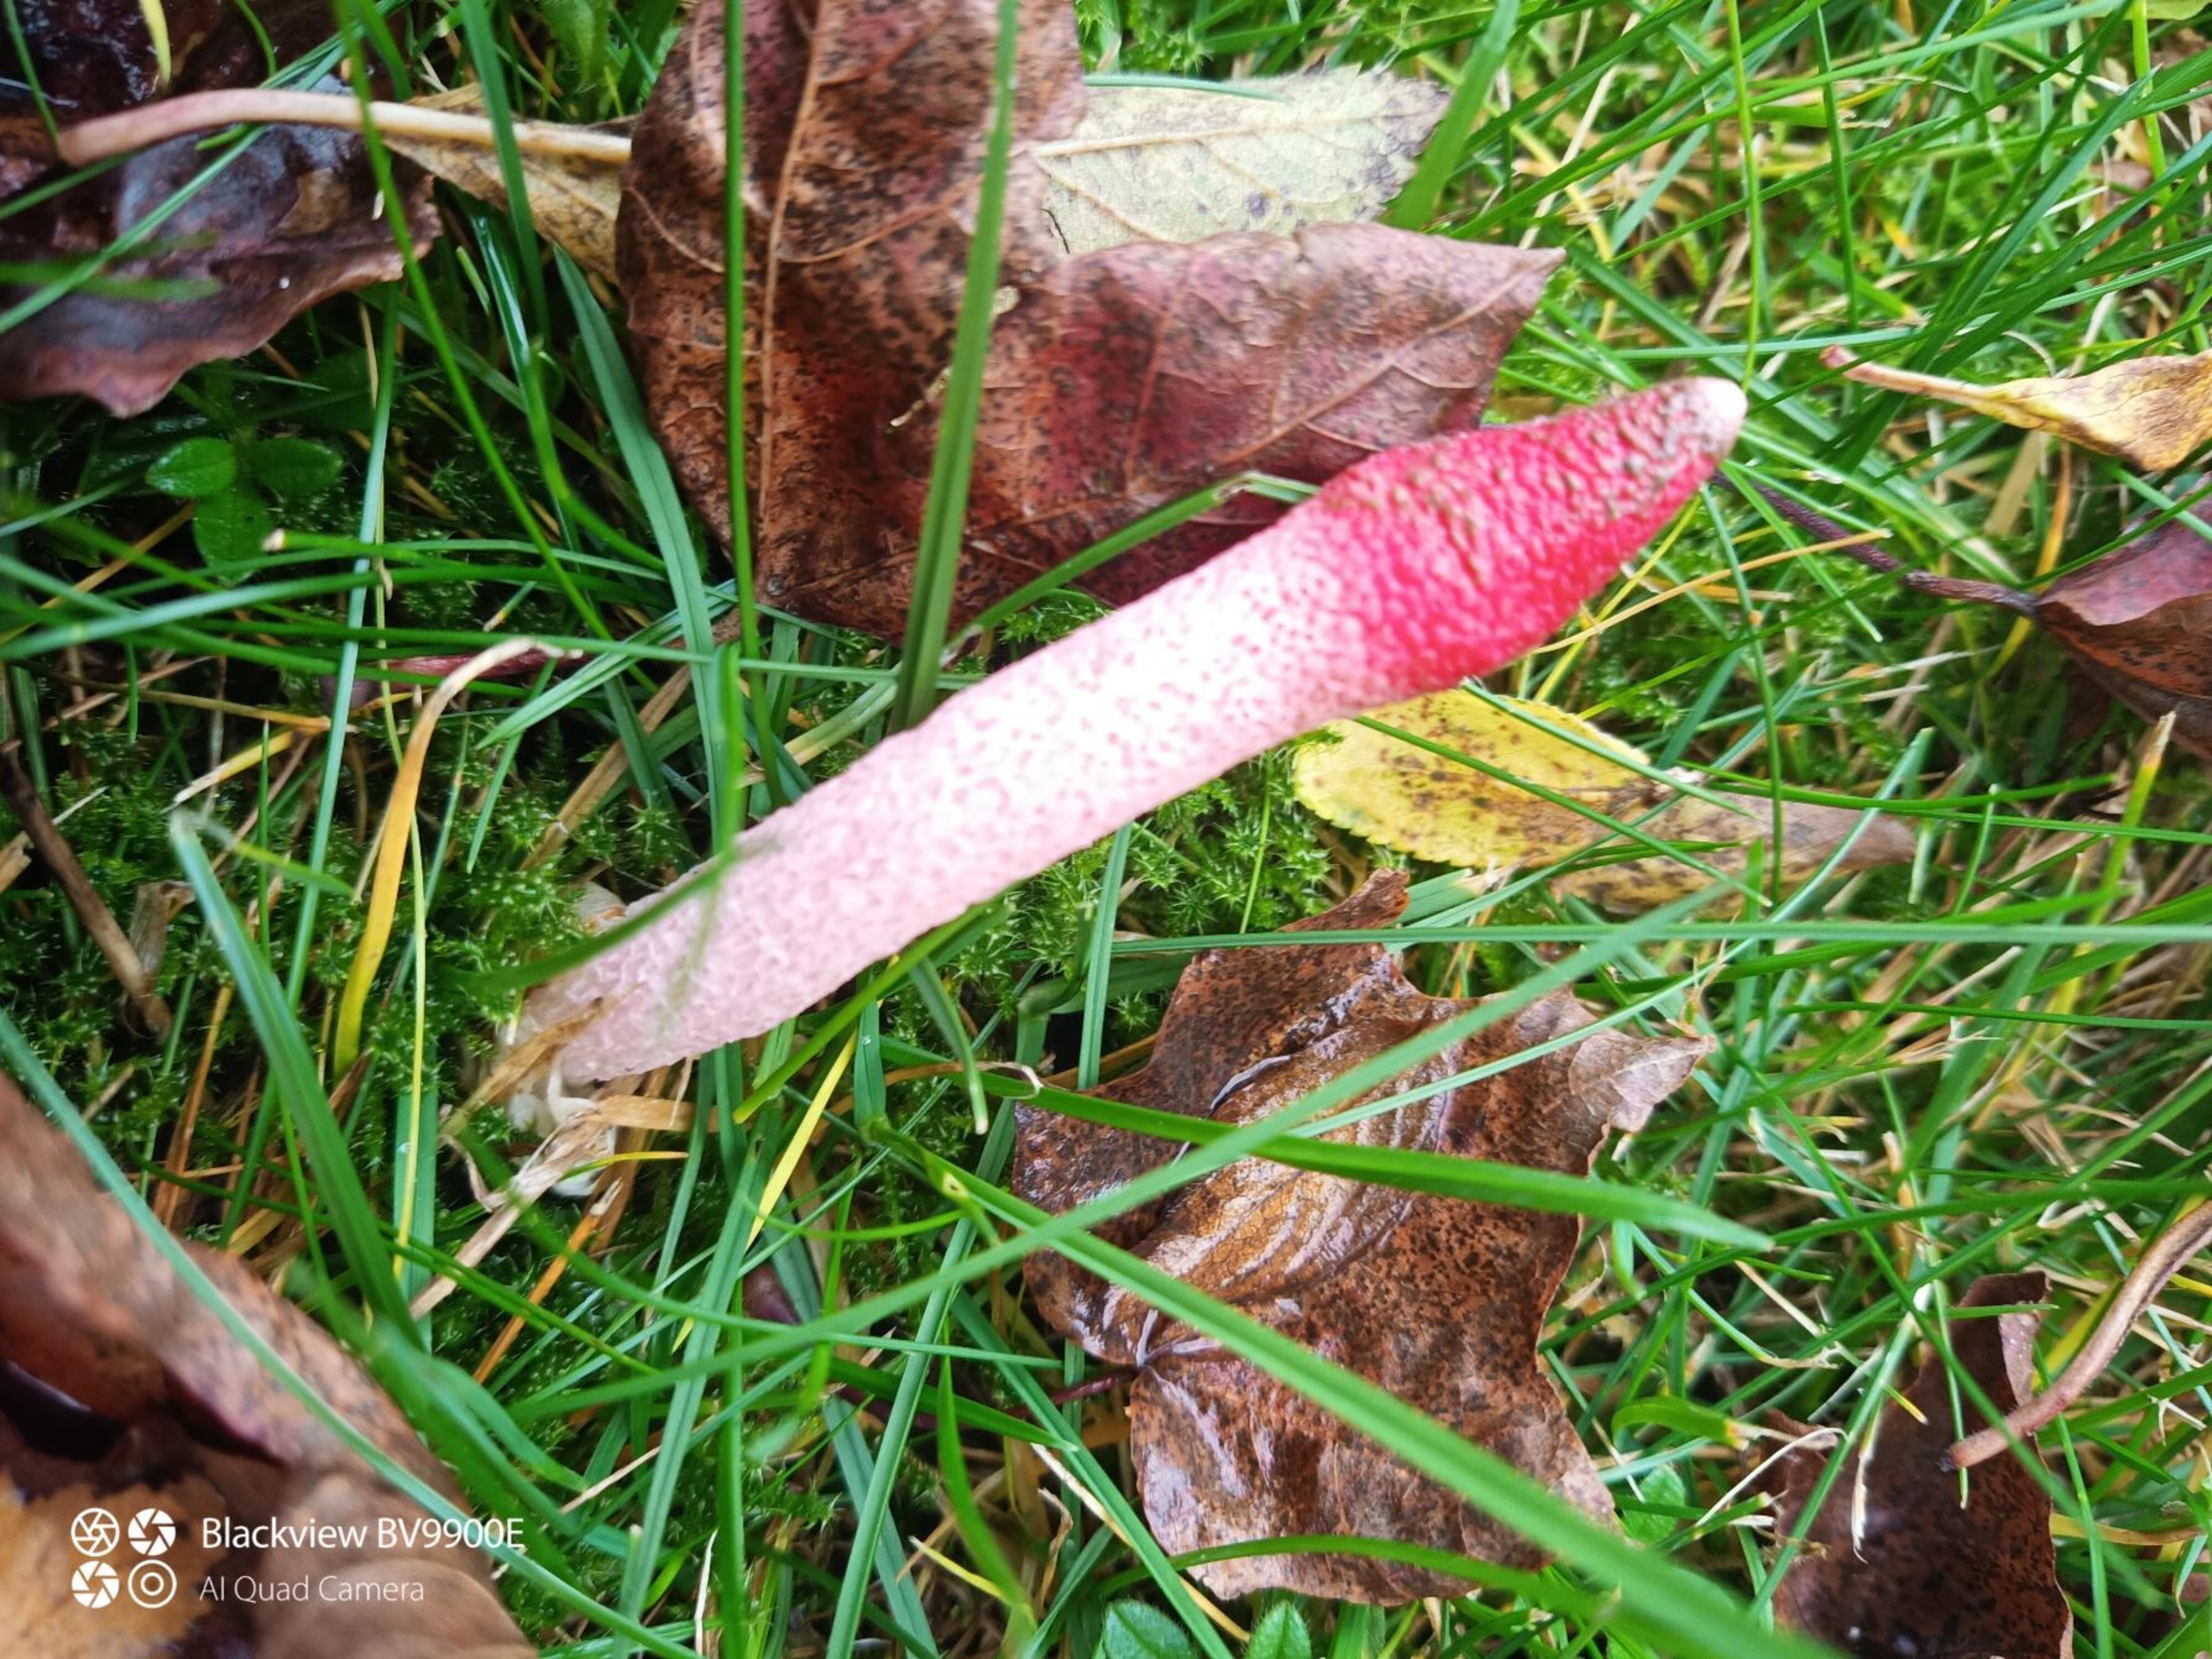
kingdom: Fungi
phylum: Basidiomycota
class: Agaricomycetes
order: Phallales
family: Phallaceae
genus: Mutinus
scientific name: Mutinus ravenelii
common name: Rød stinksvamp
